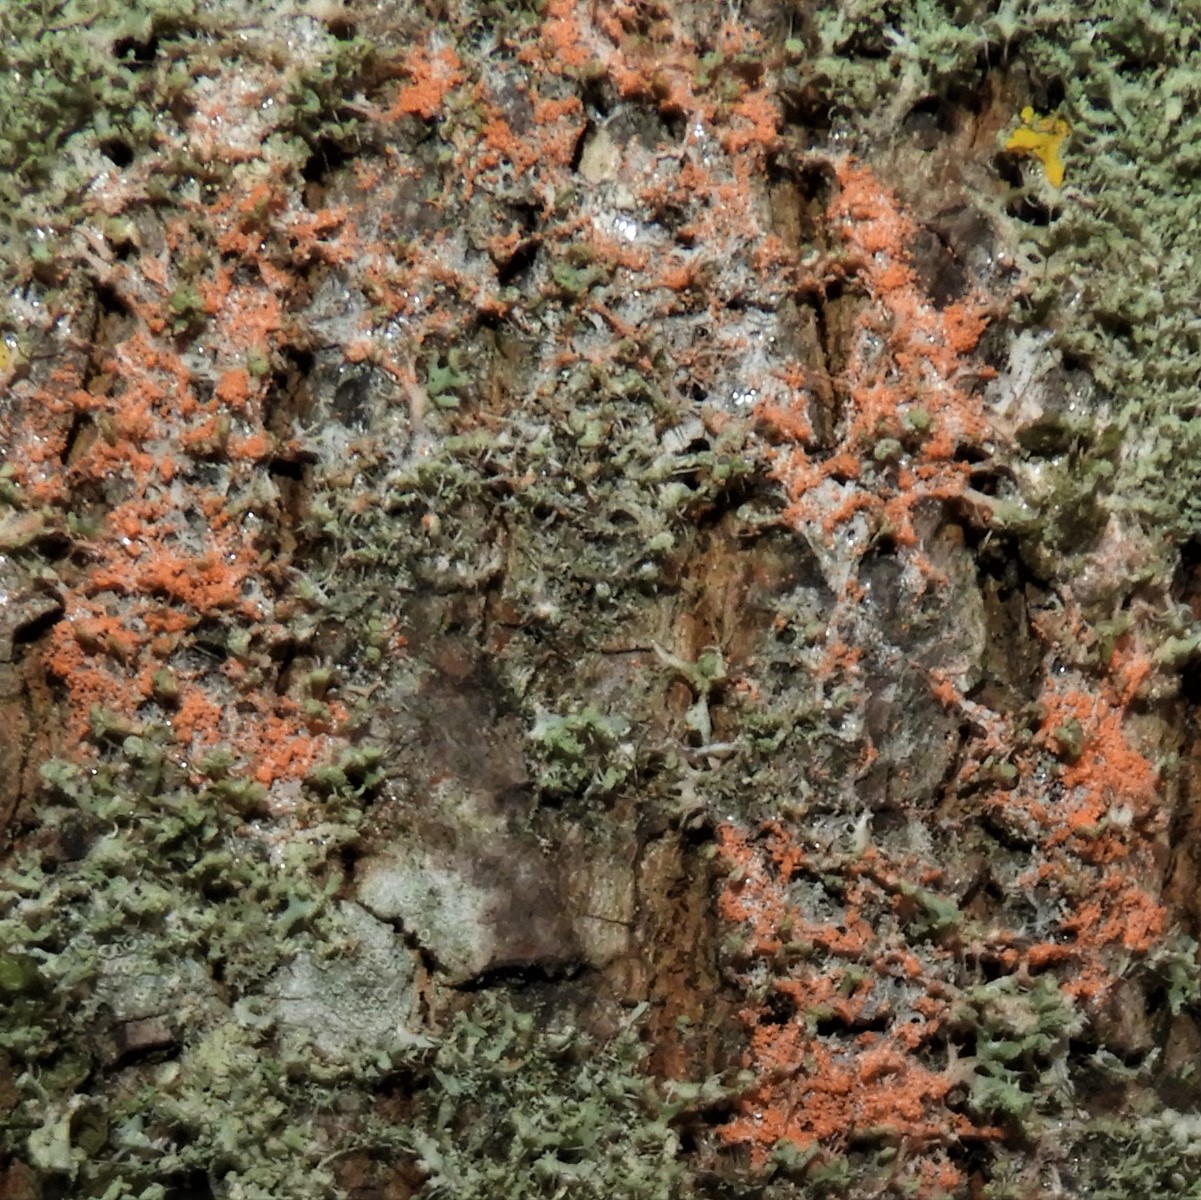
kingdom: Fungi
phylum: Basidiomycota
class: Agaricomycetes
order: Corticiales
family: Corticiaceae
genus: Erythricium
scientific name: Erythricium aurantiacum
